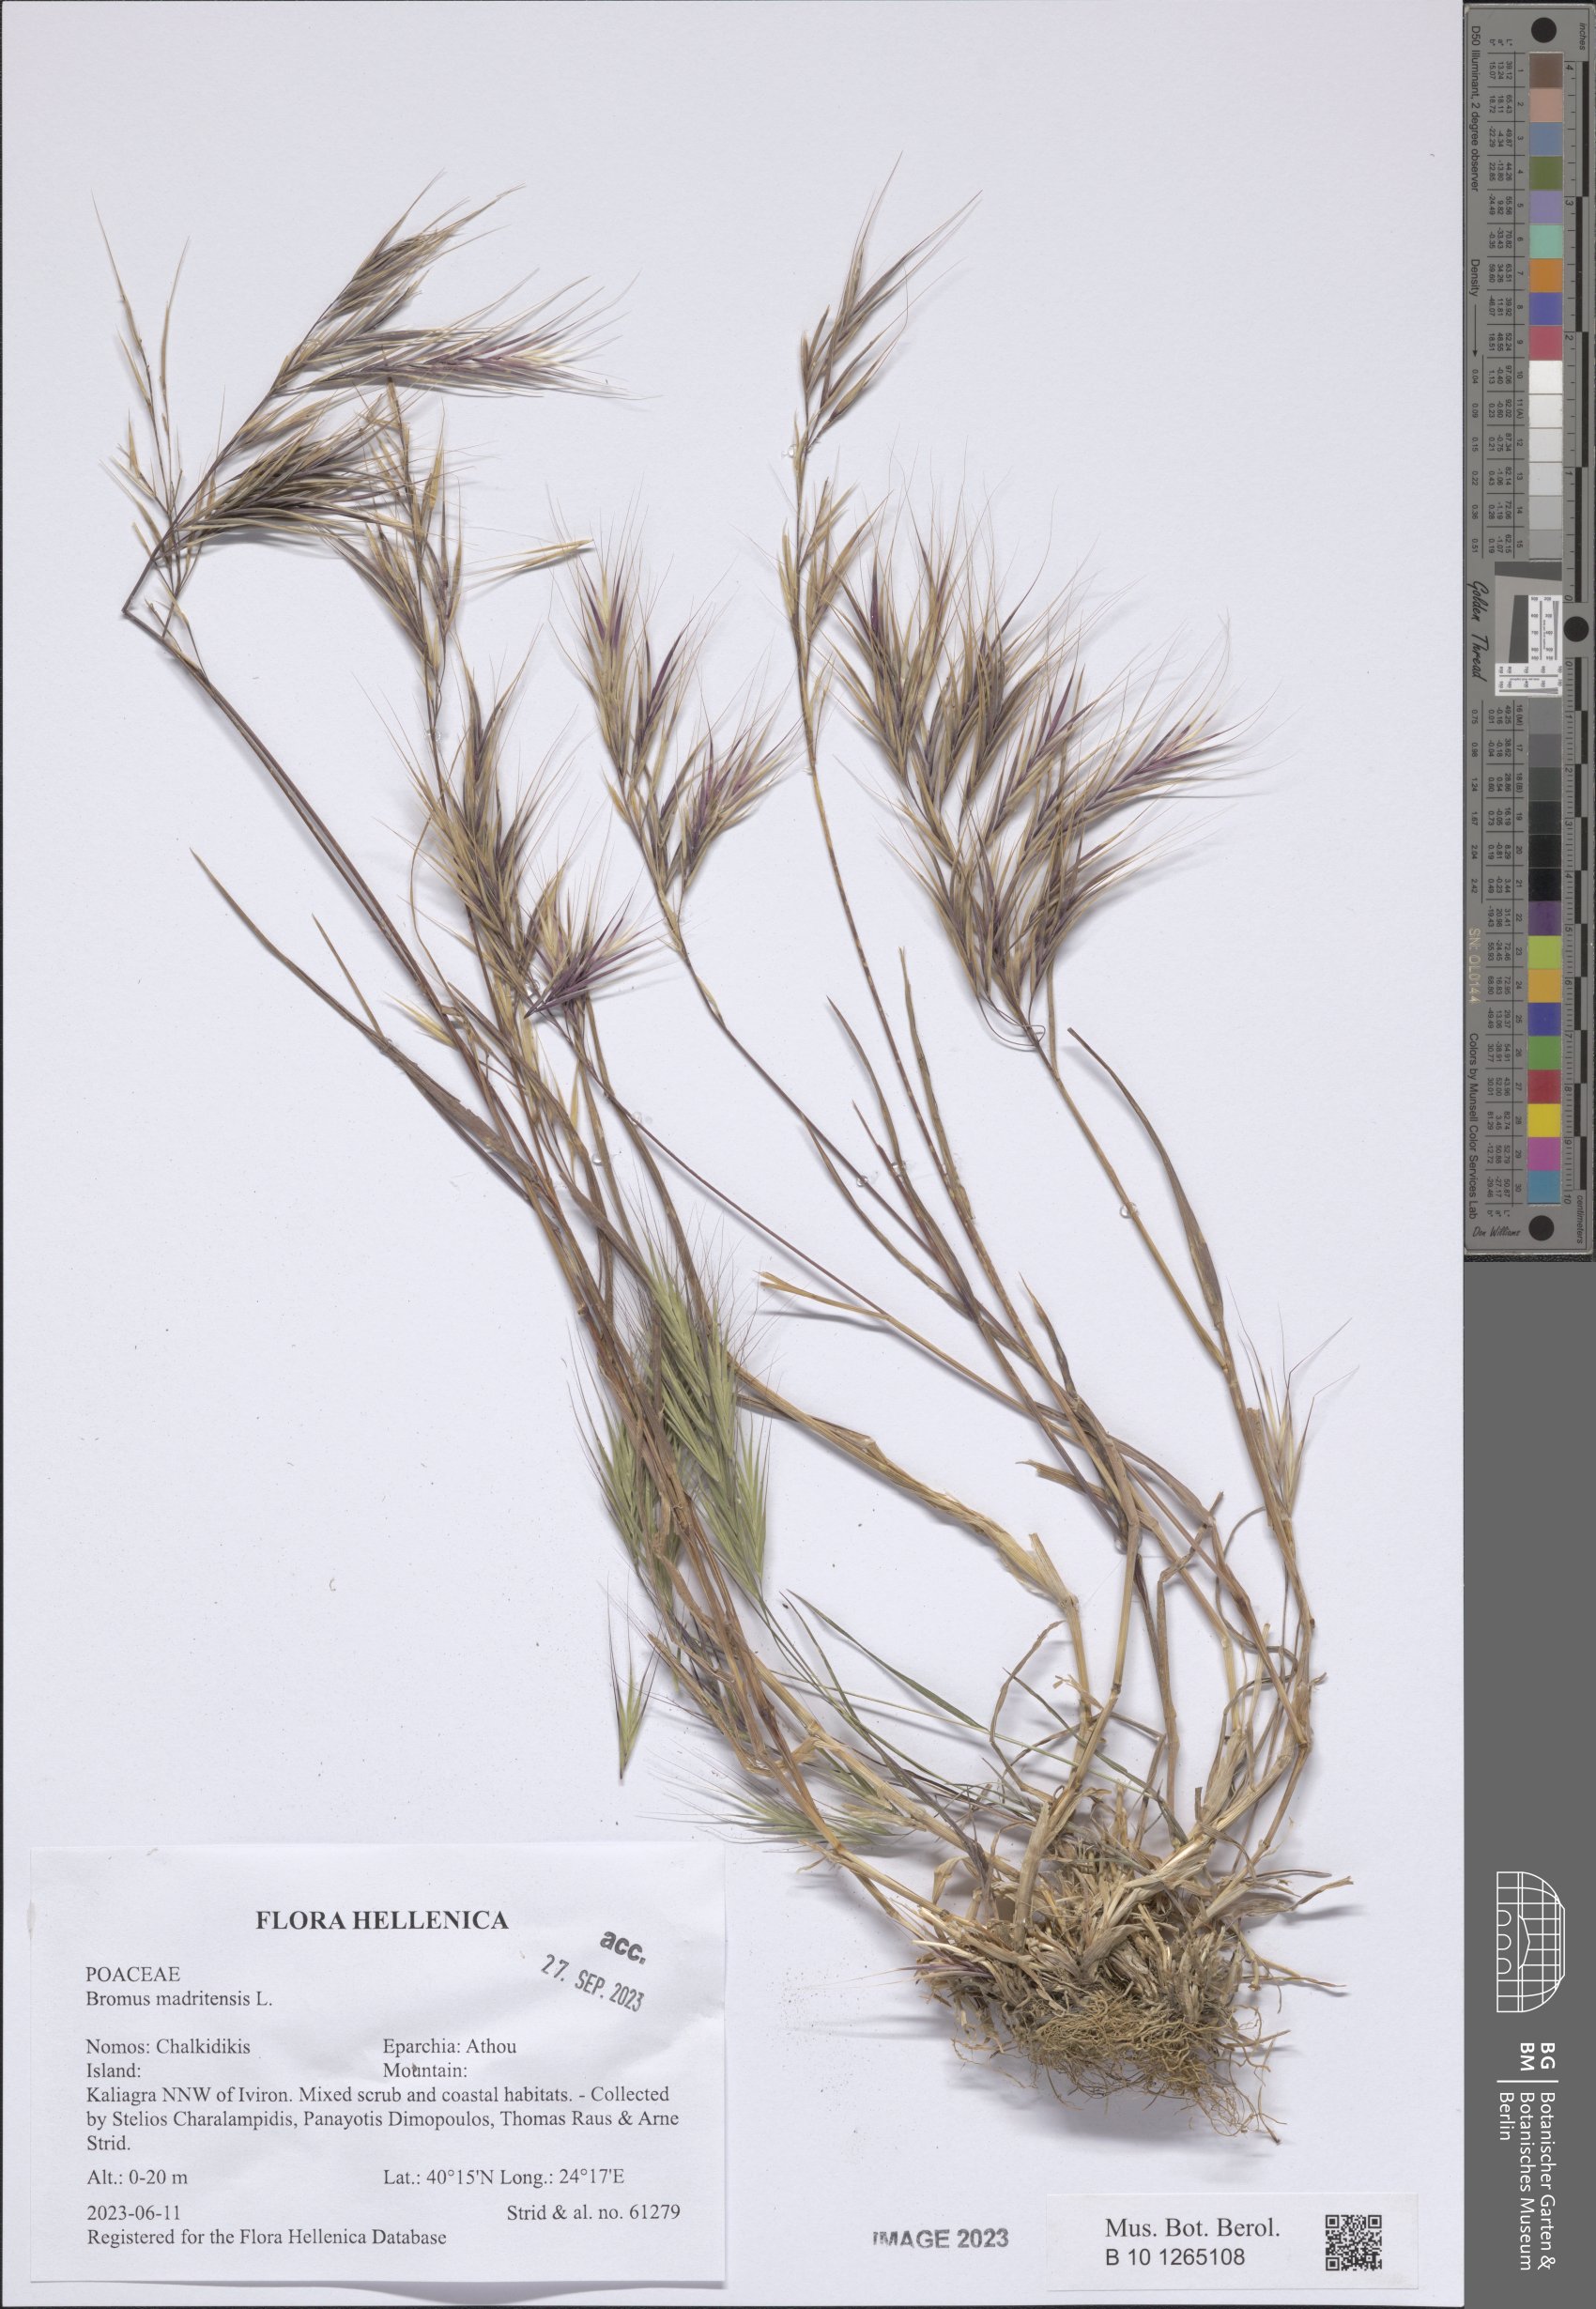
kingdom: Plantae
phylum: Tracheophyta
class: Liliopsida
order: Poales
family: Poaceae
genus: Bromus
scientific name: Bromus madritensis
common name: Compact brome
